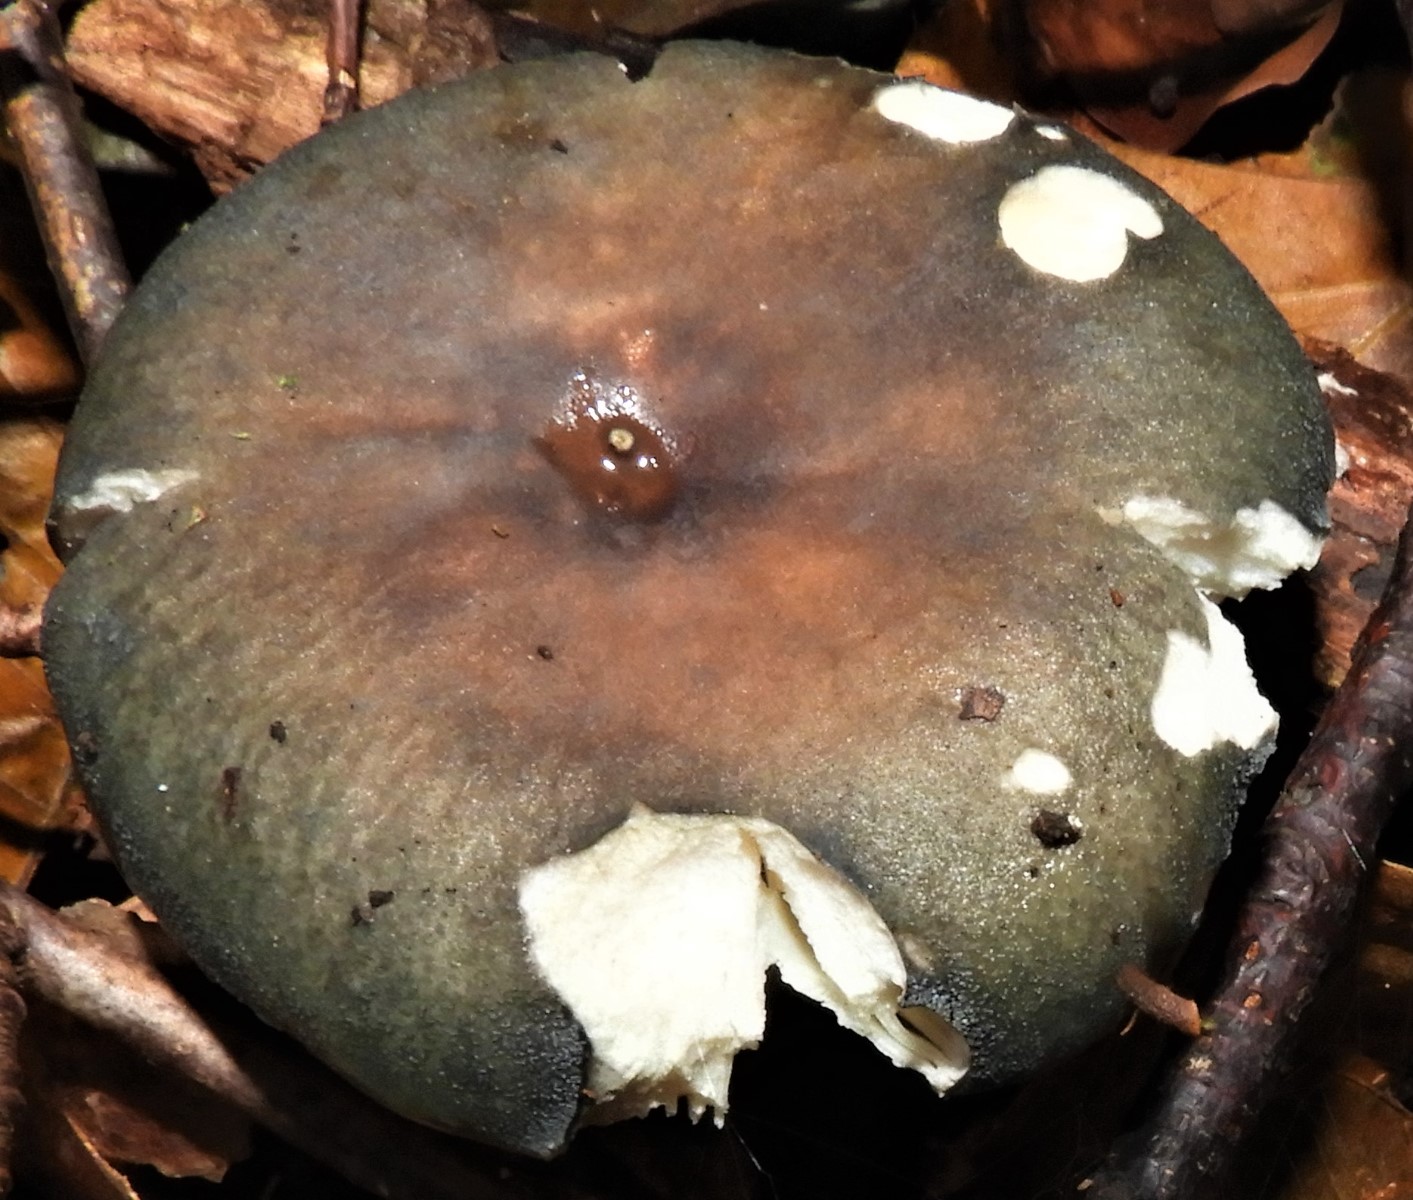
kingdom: Fungi
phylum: Basidiomycota
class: Agaricomycetes
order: Russulales
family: Russulaceae
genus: Russula
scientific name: Russula cyanoxantha
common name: broget skørhat
